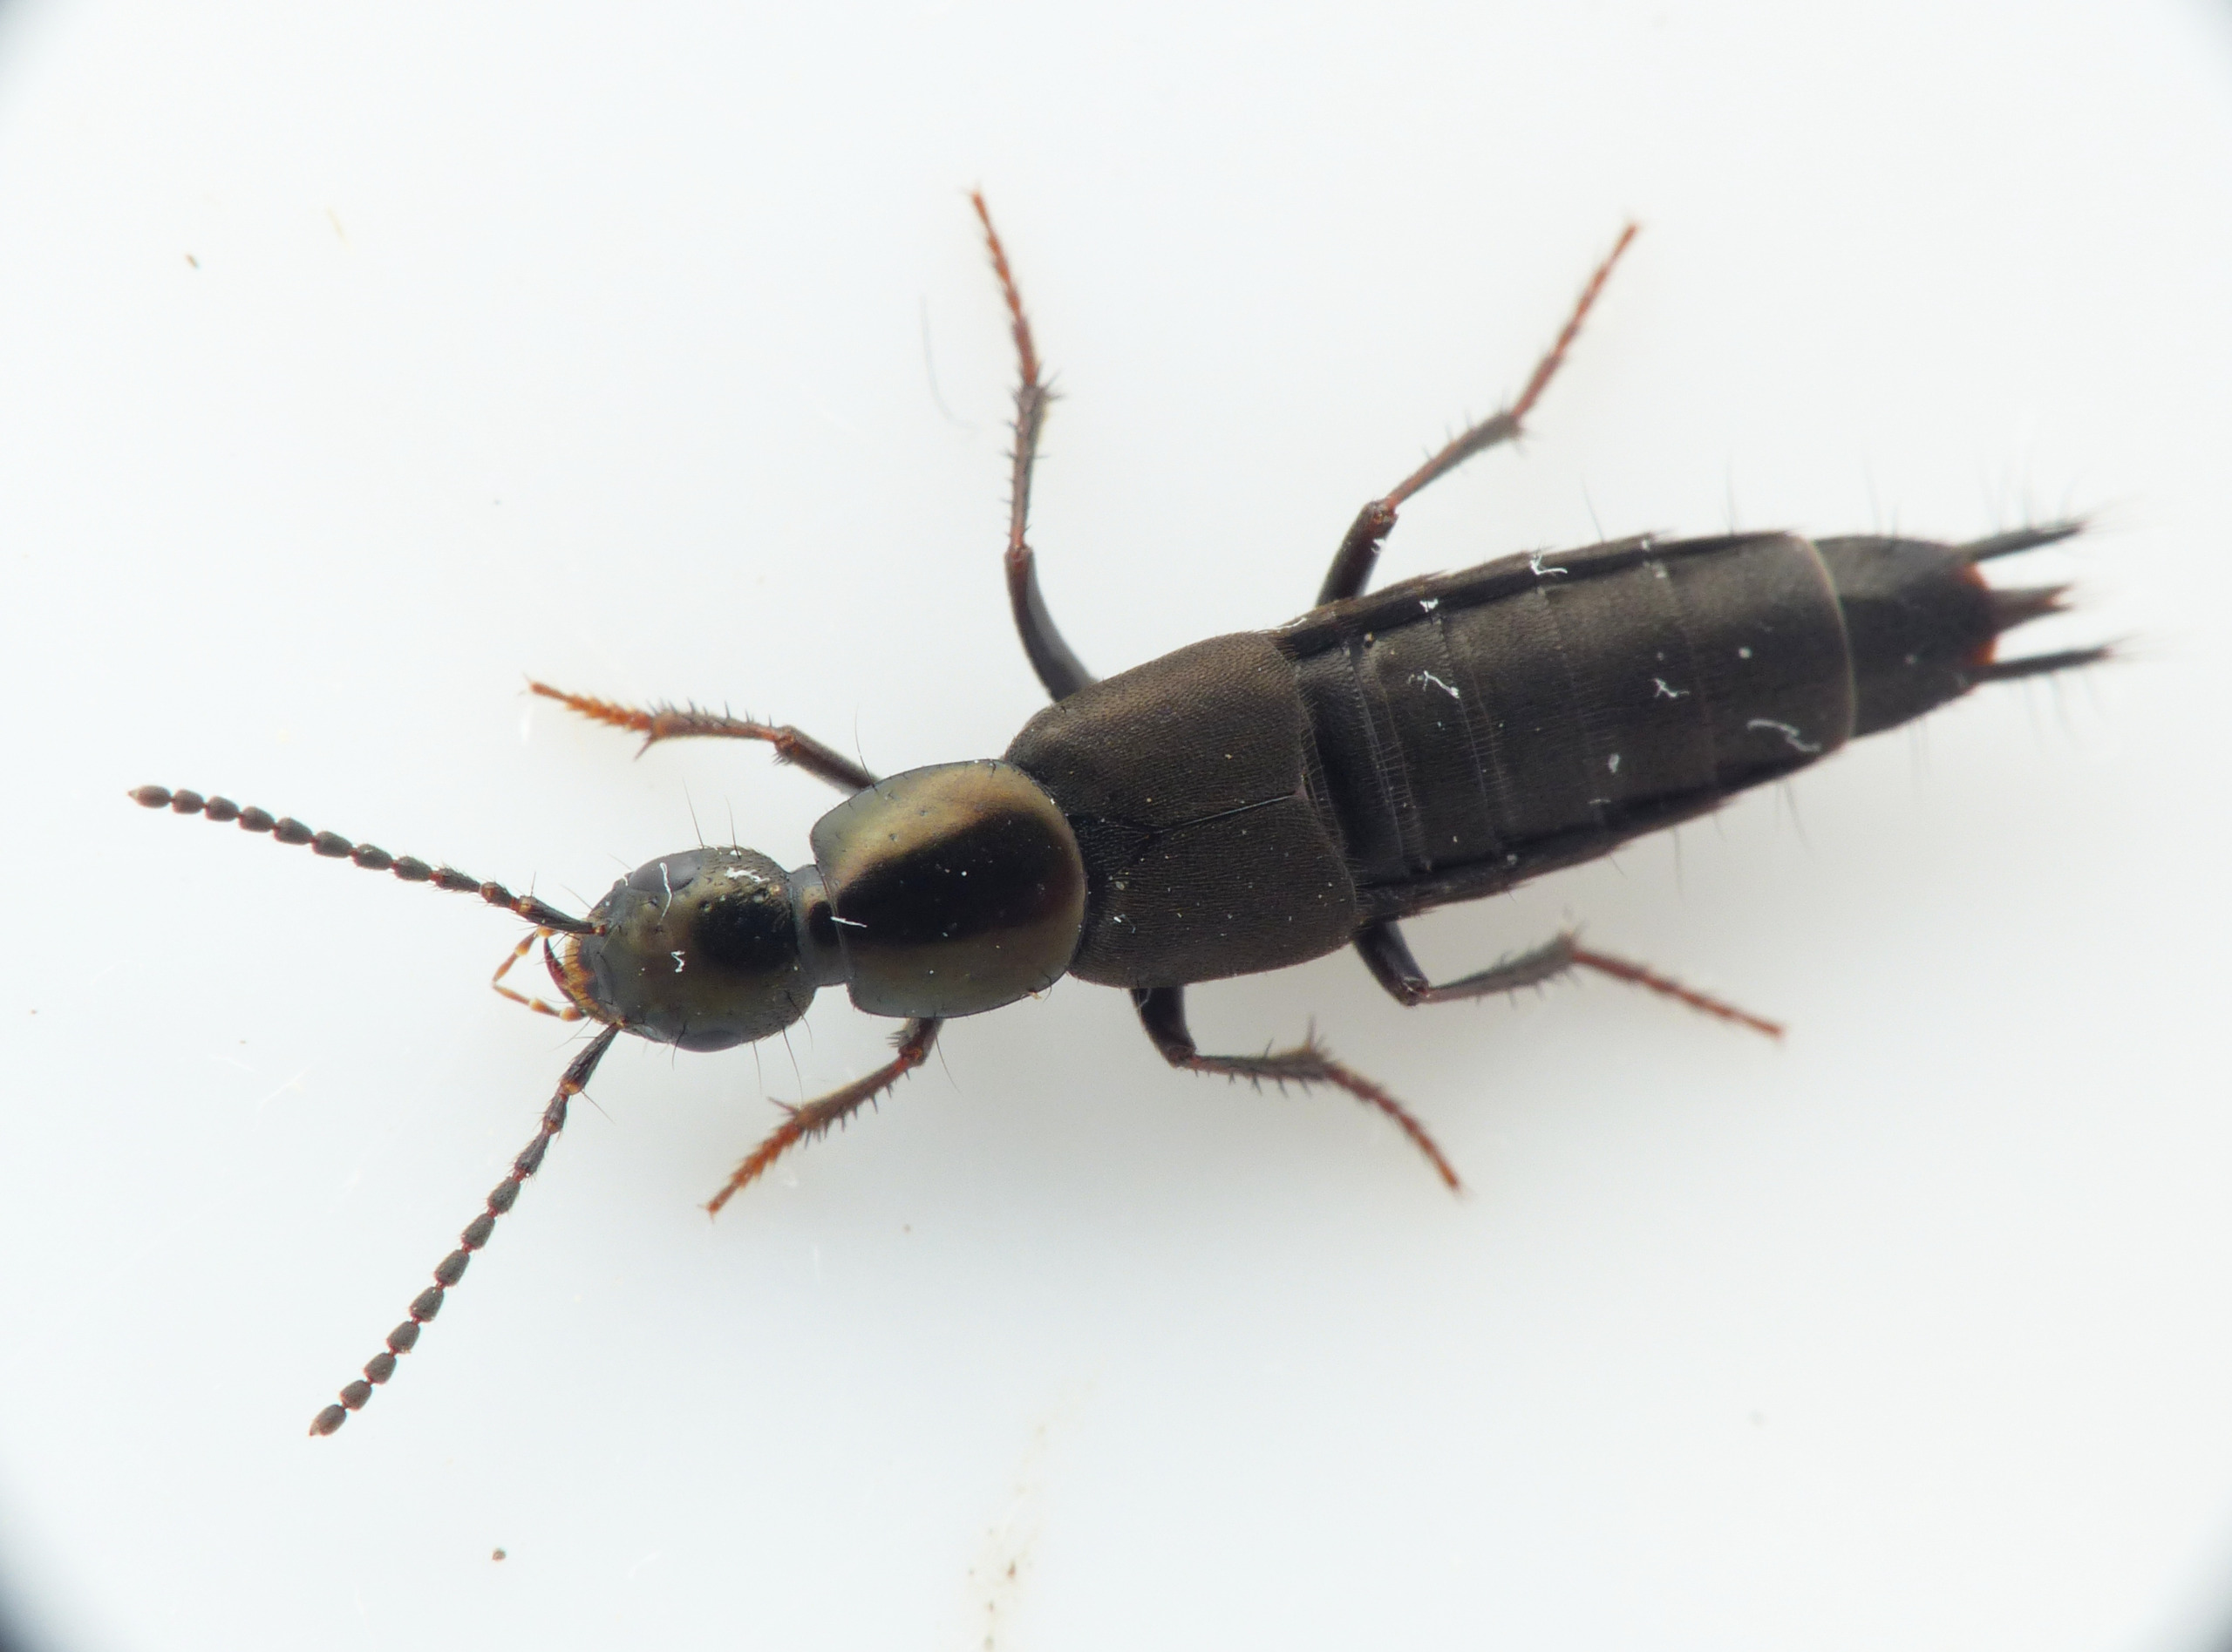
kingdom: Animalia
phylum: Arthropoda
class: Insecta
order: Coleoptera
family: Staphylinidae
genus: Philonthus
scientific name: Philonthus decorus
